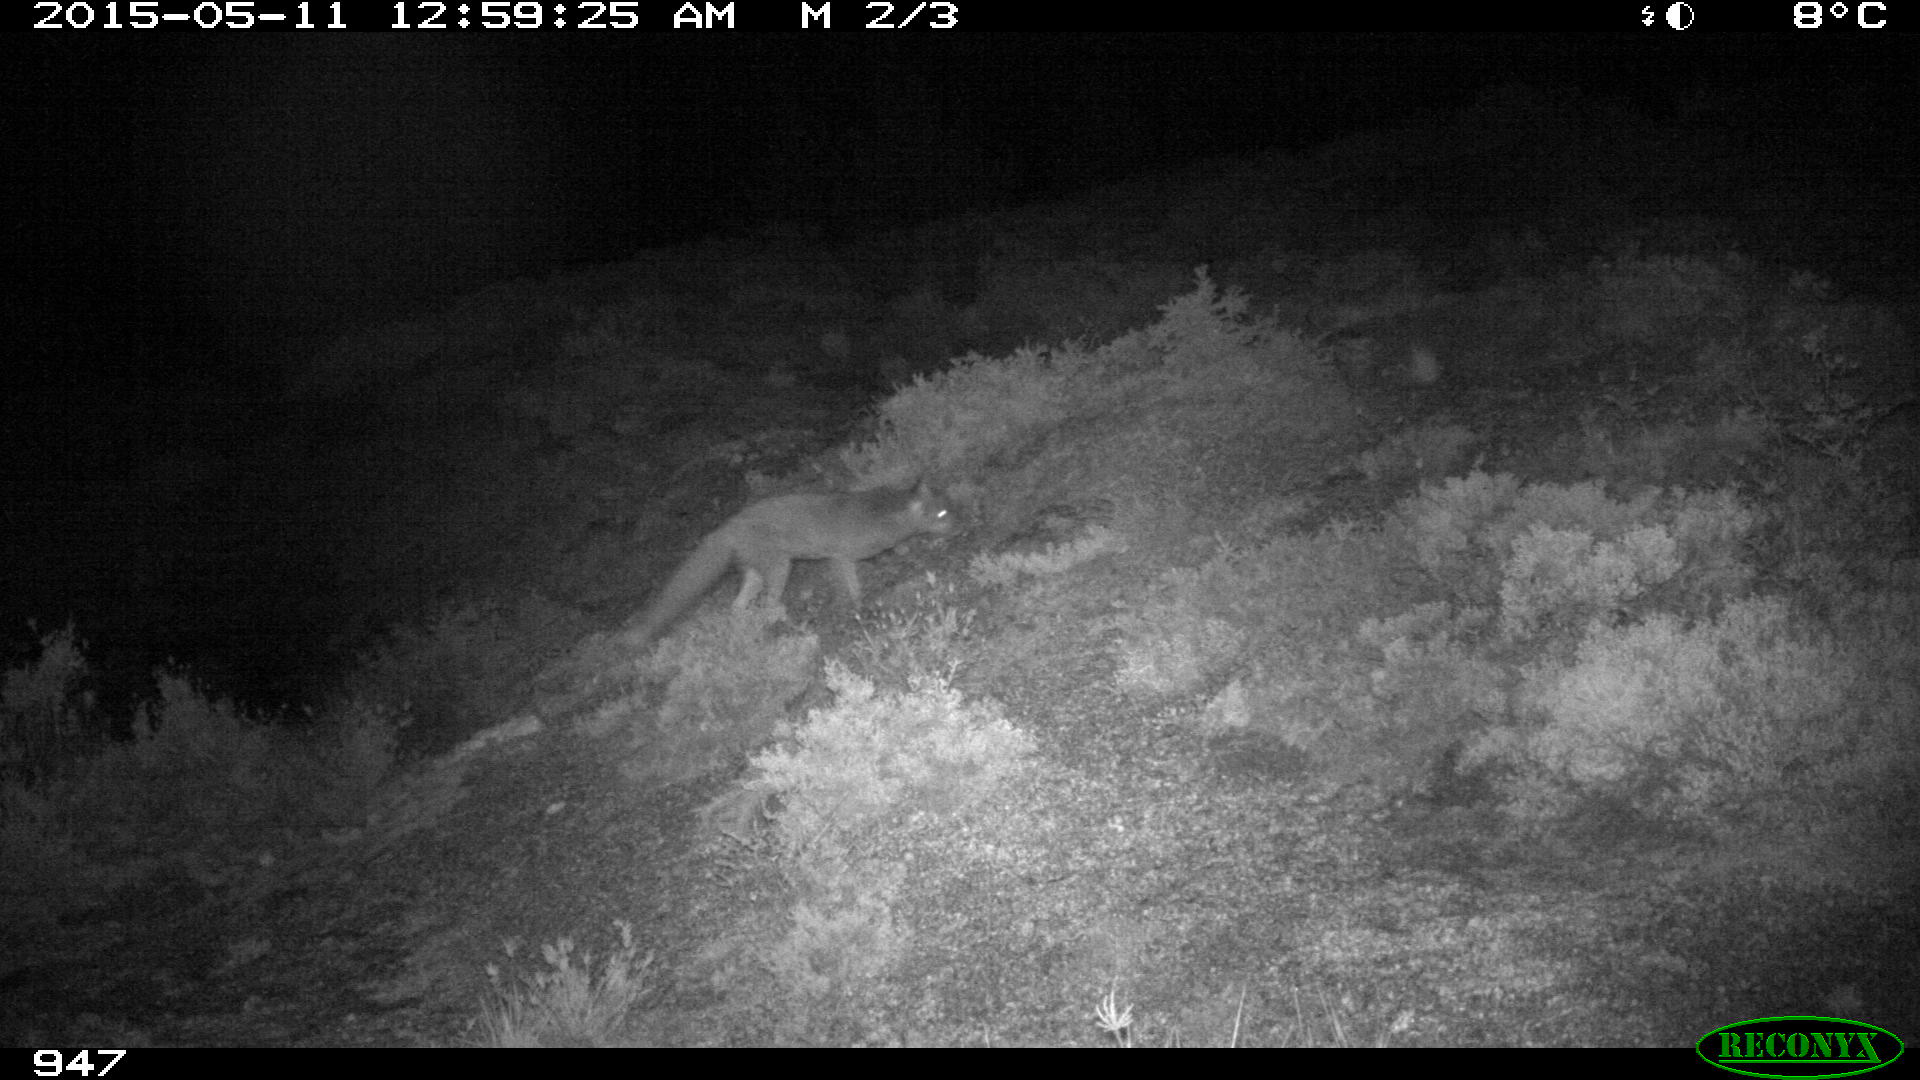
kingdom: Animalia
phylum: Chordata
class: Mammalia
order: Carnivora
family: Canidae
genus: Vulpes
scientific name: Vulpes vulpes
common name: Red fox
